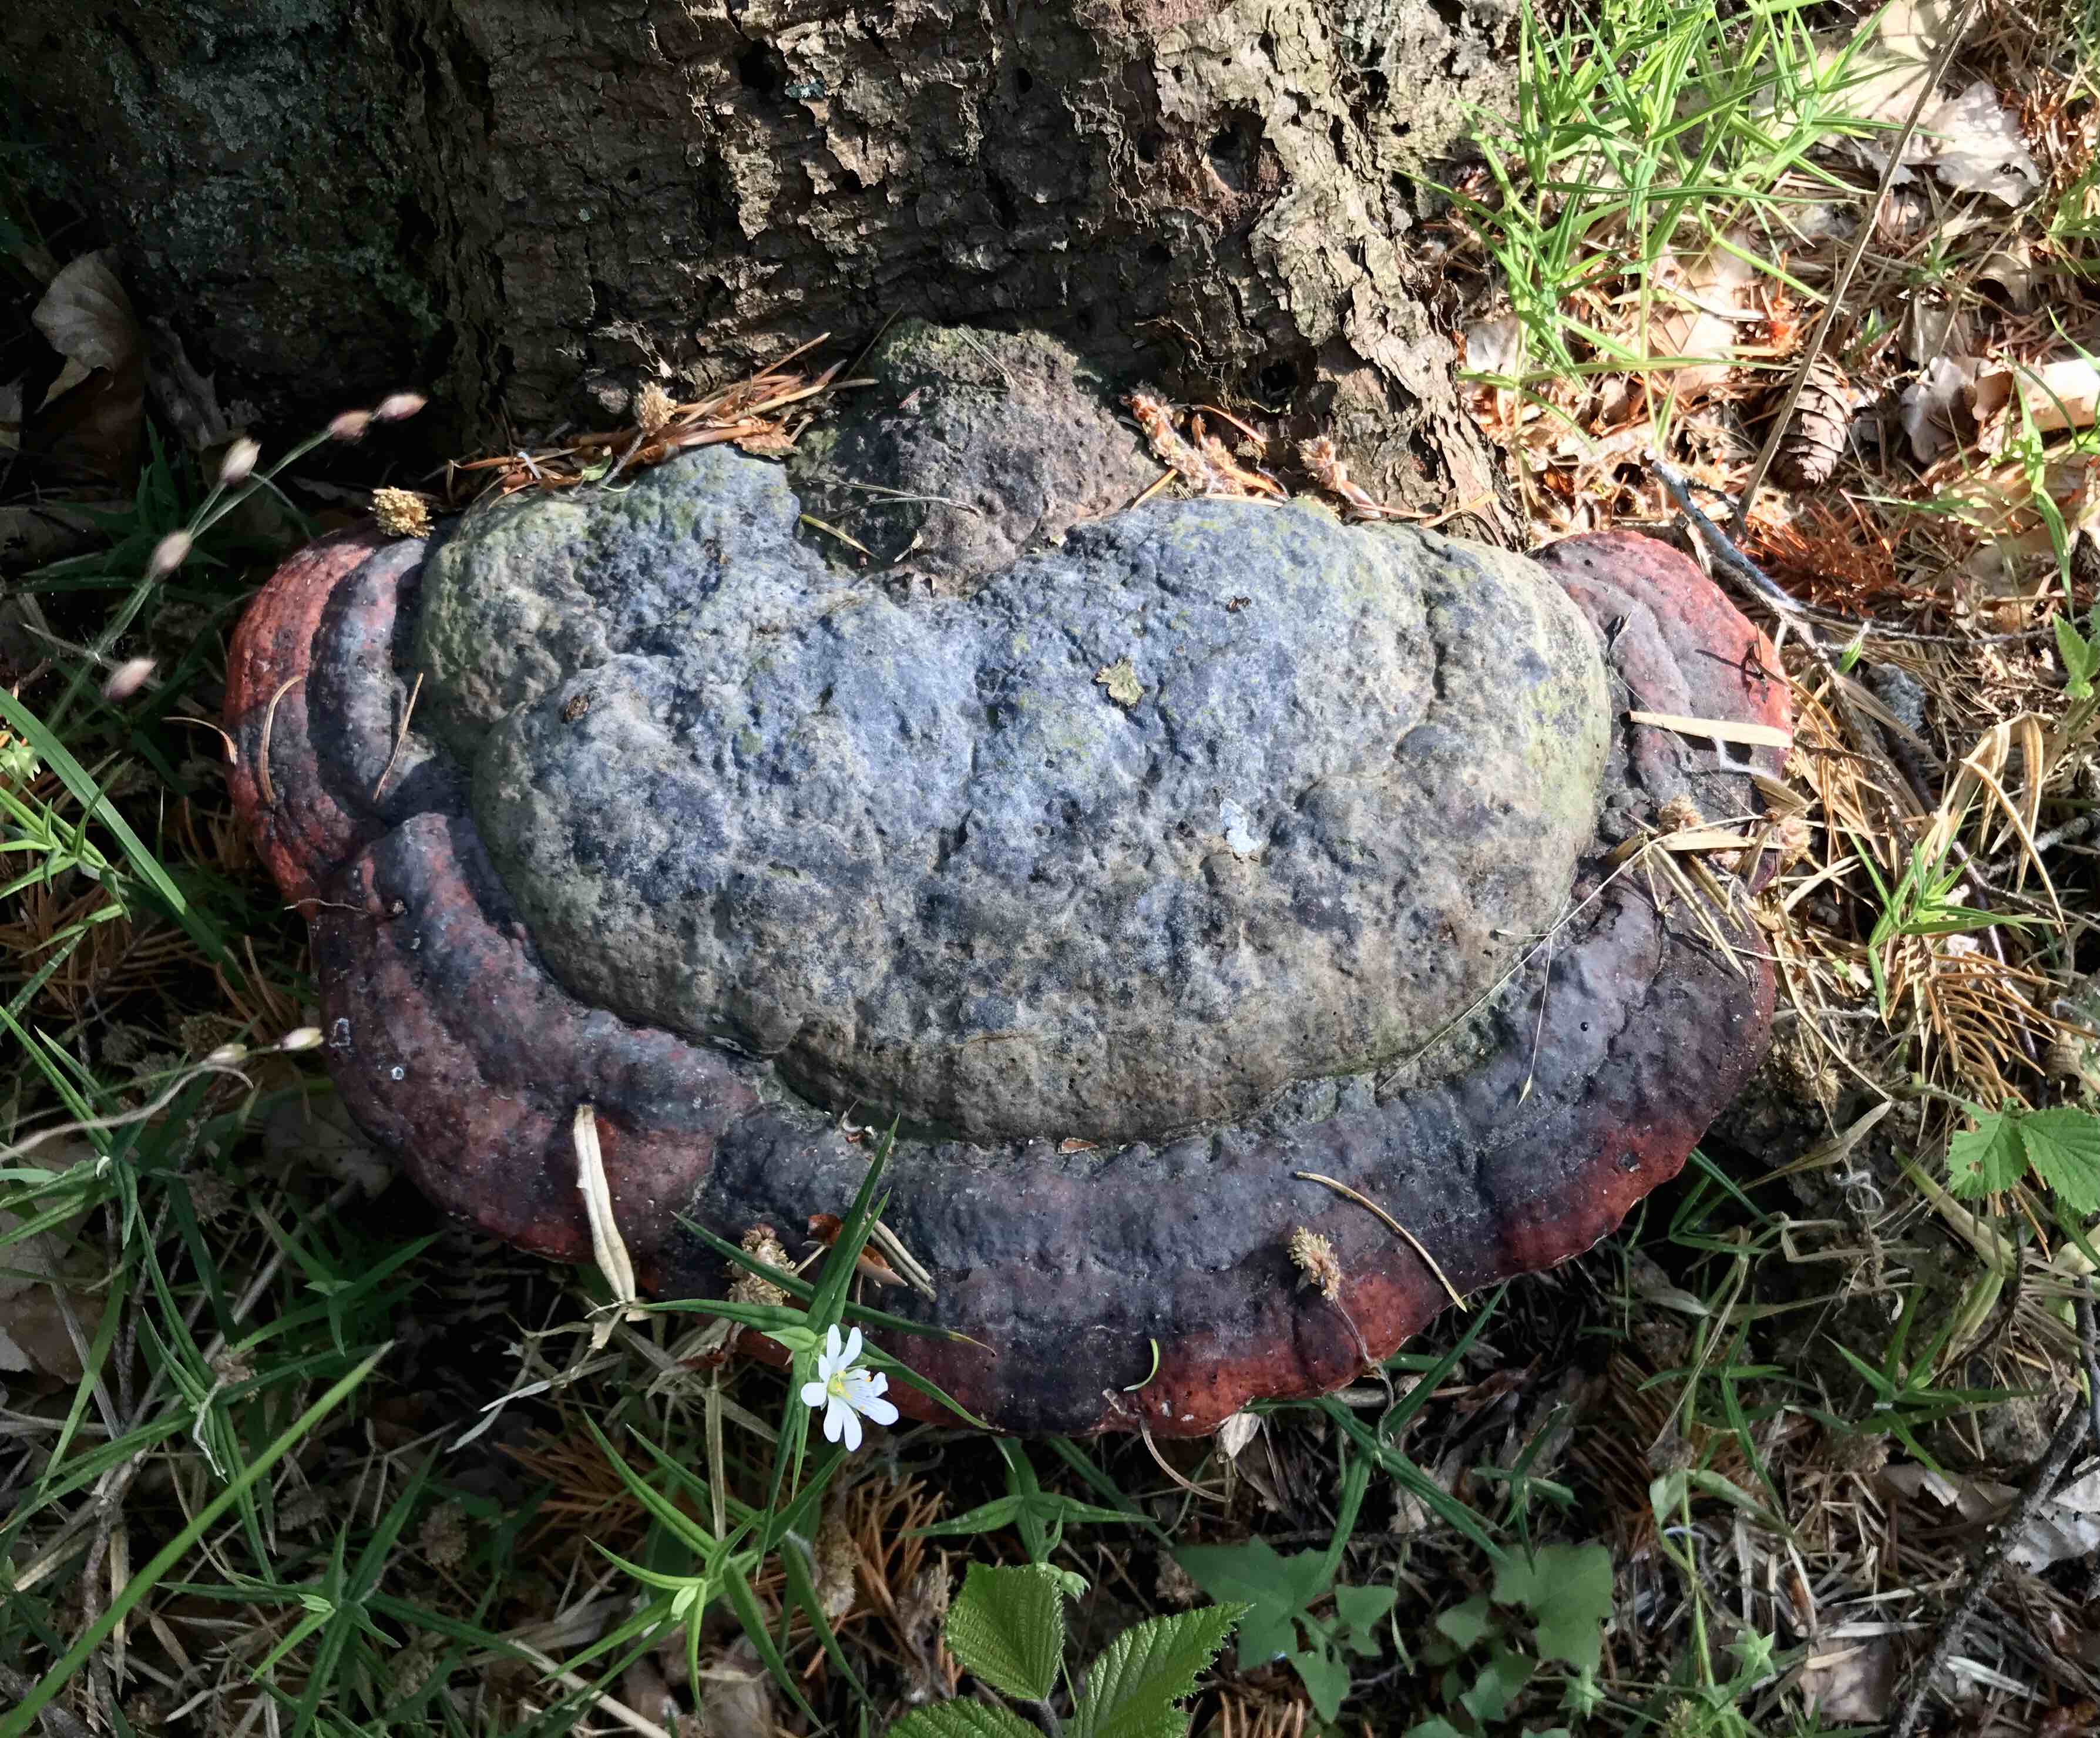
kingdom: Fungi
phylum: Basidiomycota
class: Agaricomycetes
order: Polyporales
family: Fomitopsidaceae
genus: Fomitopsis
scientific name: Fomitopsis pinicola
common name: randbæltet hovporesvamp
